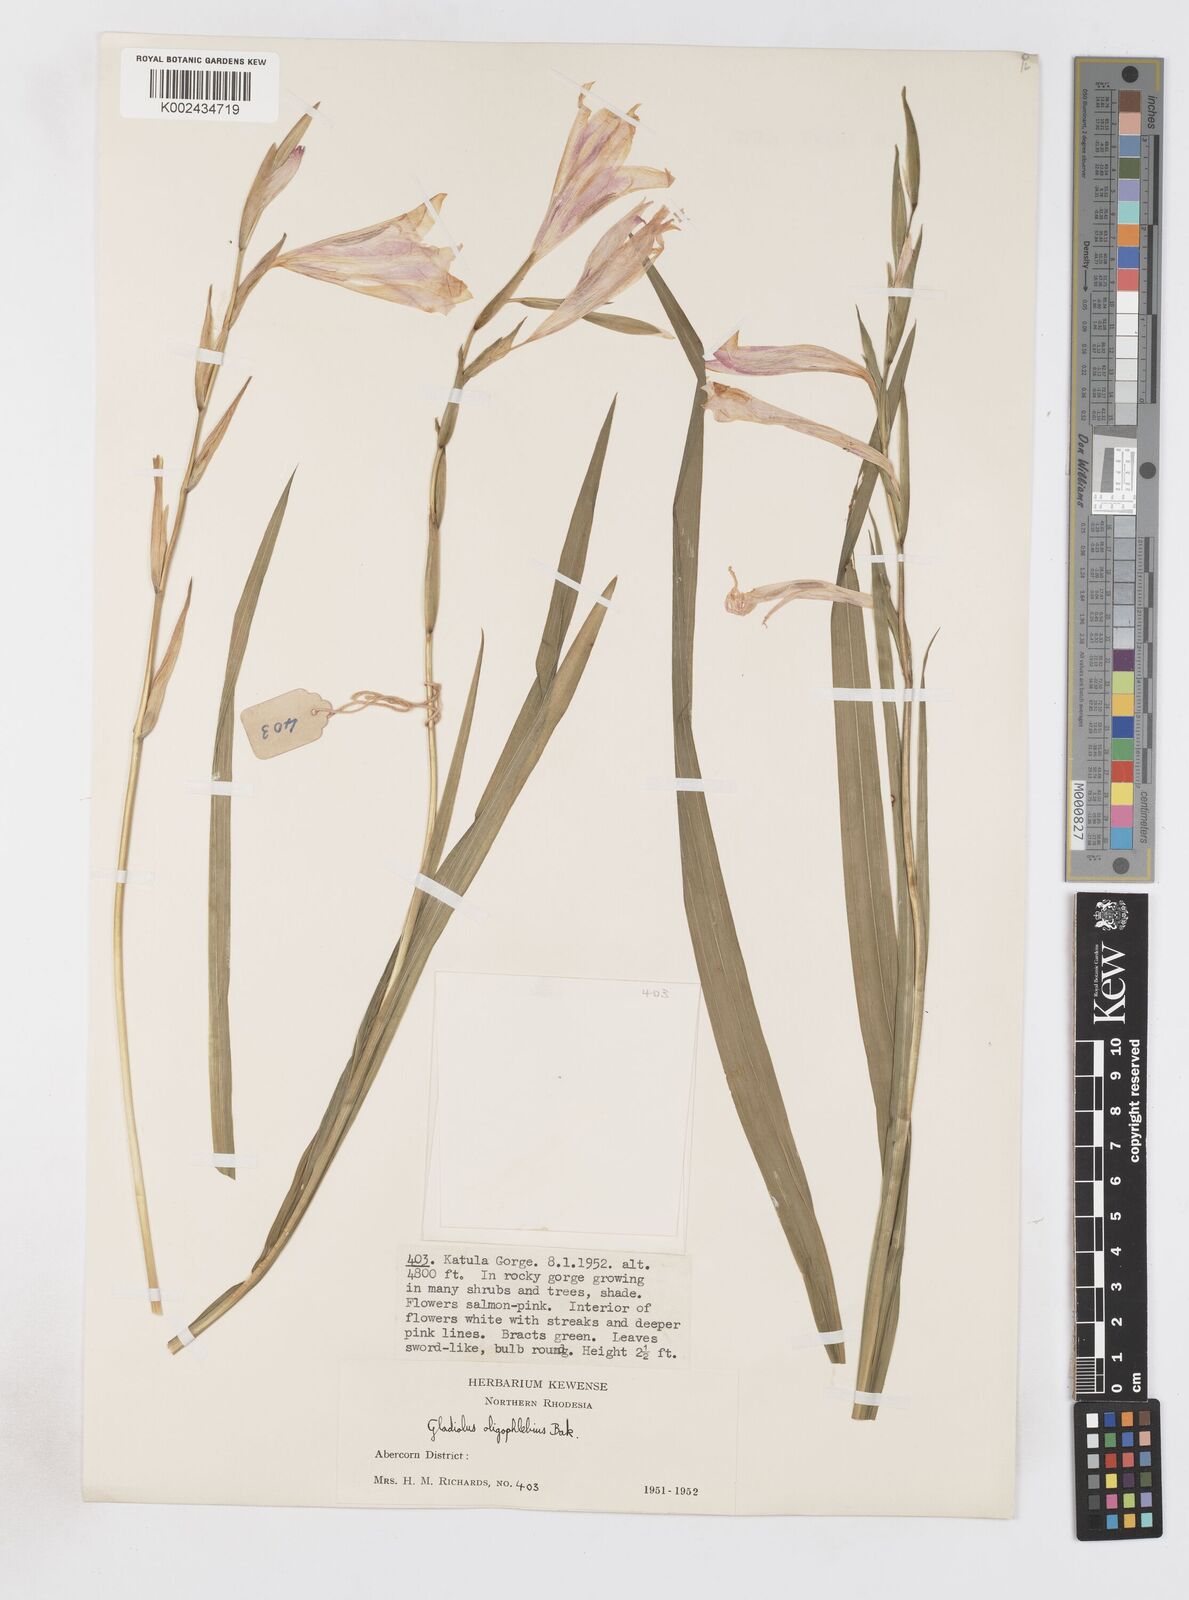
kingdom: Plantae
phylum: Tracheophyta
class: Liliopsida
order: Asparagales
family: Iridaceae
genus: Gladiolus
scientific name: Gladiolus oligophlebius
